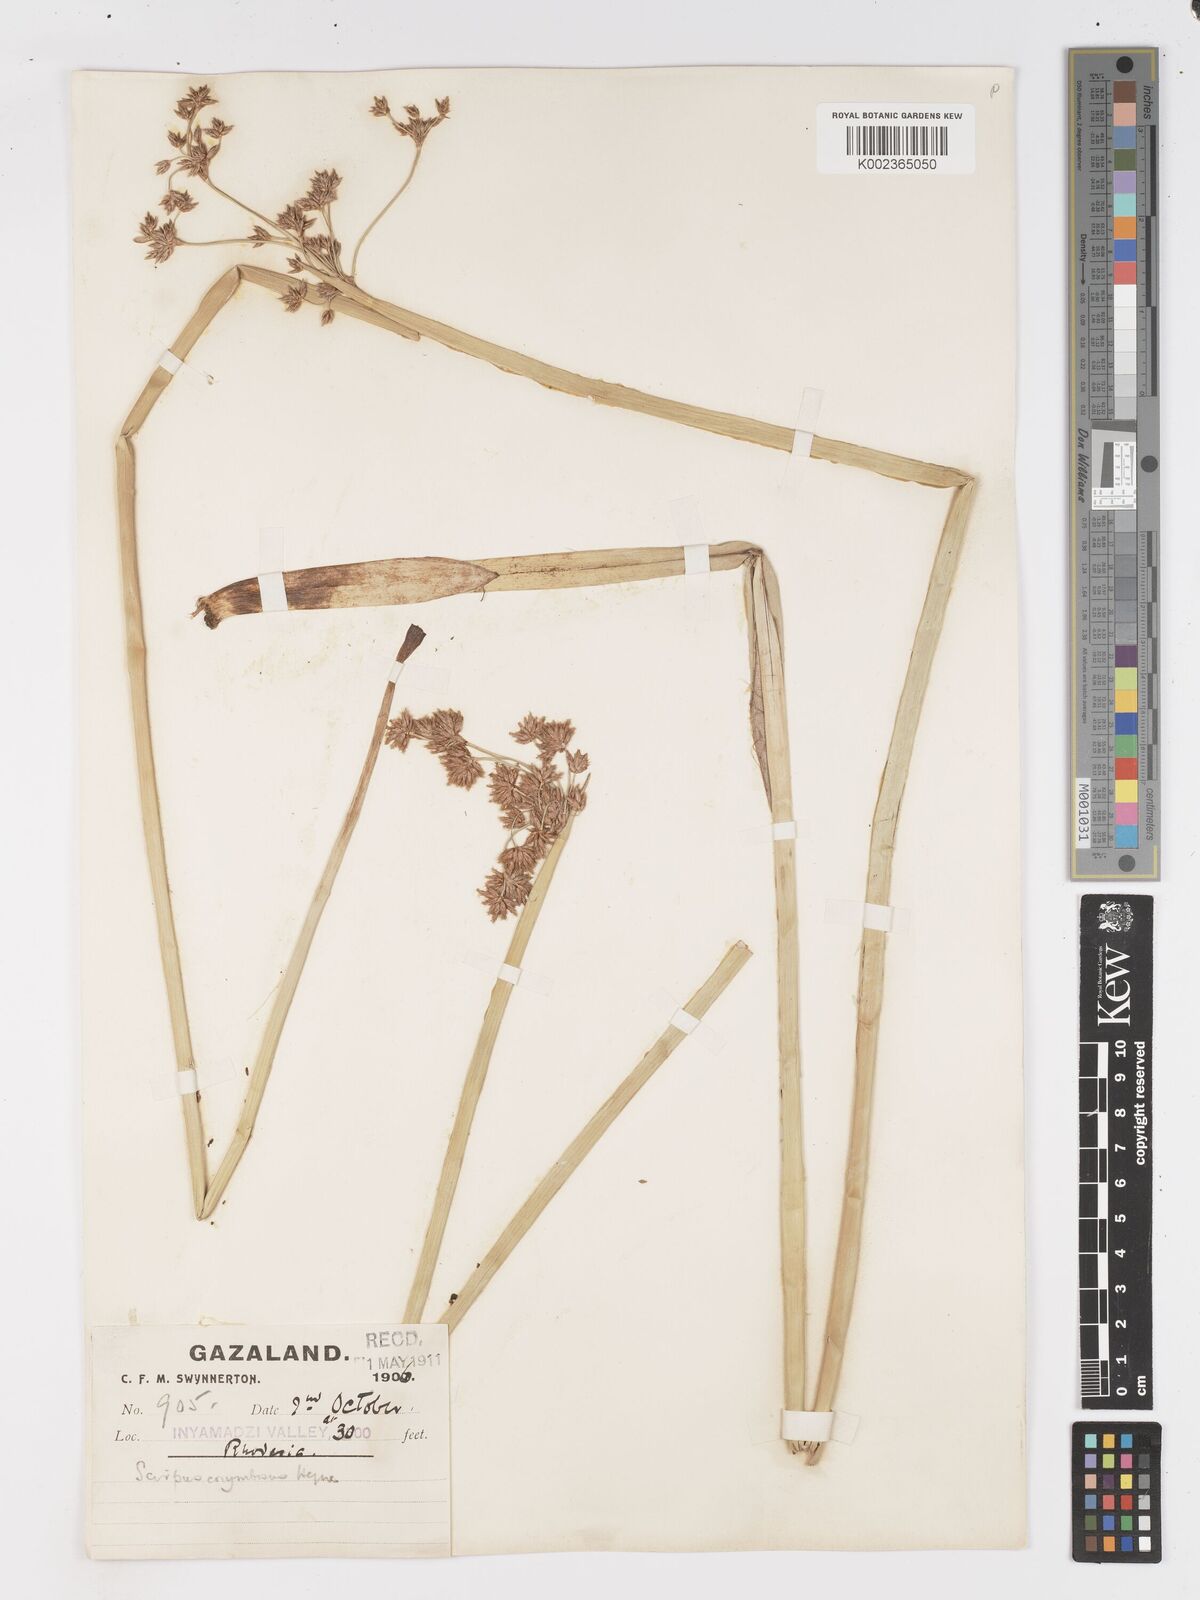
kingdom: Plantae
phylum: Tracheophyta
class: Liliopsida
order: Poales
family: Cyperaceae
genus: Schoenoplectus
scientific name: Schoenoplectus
